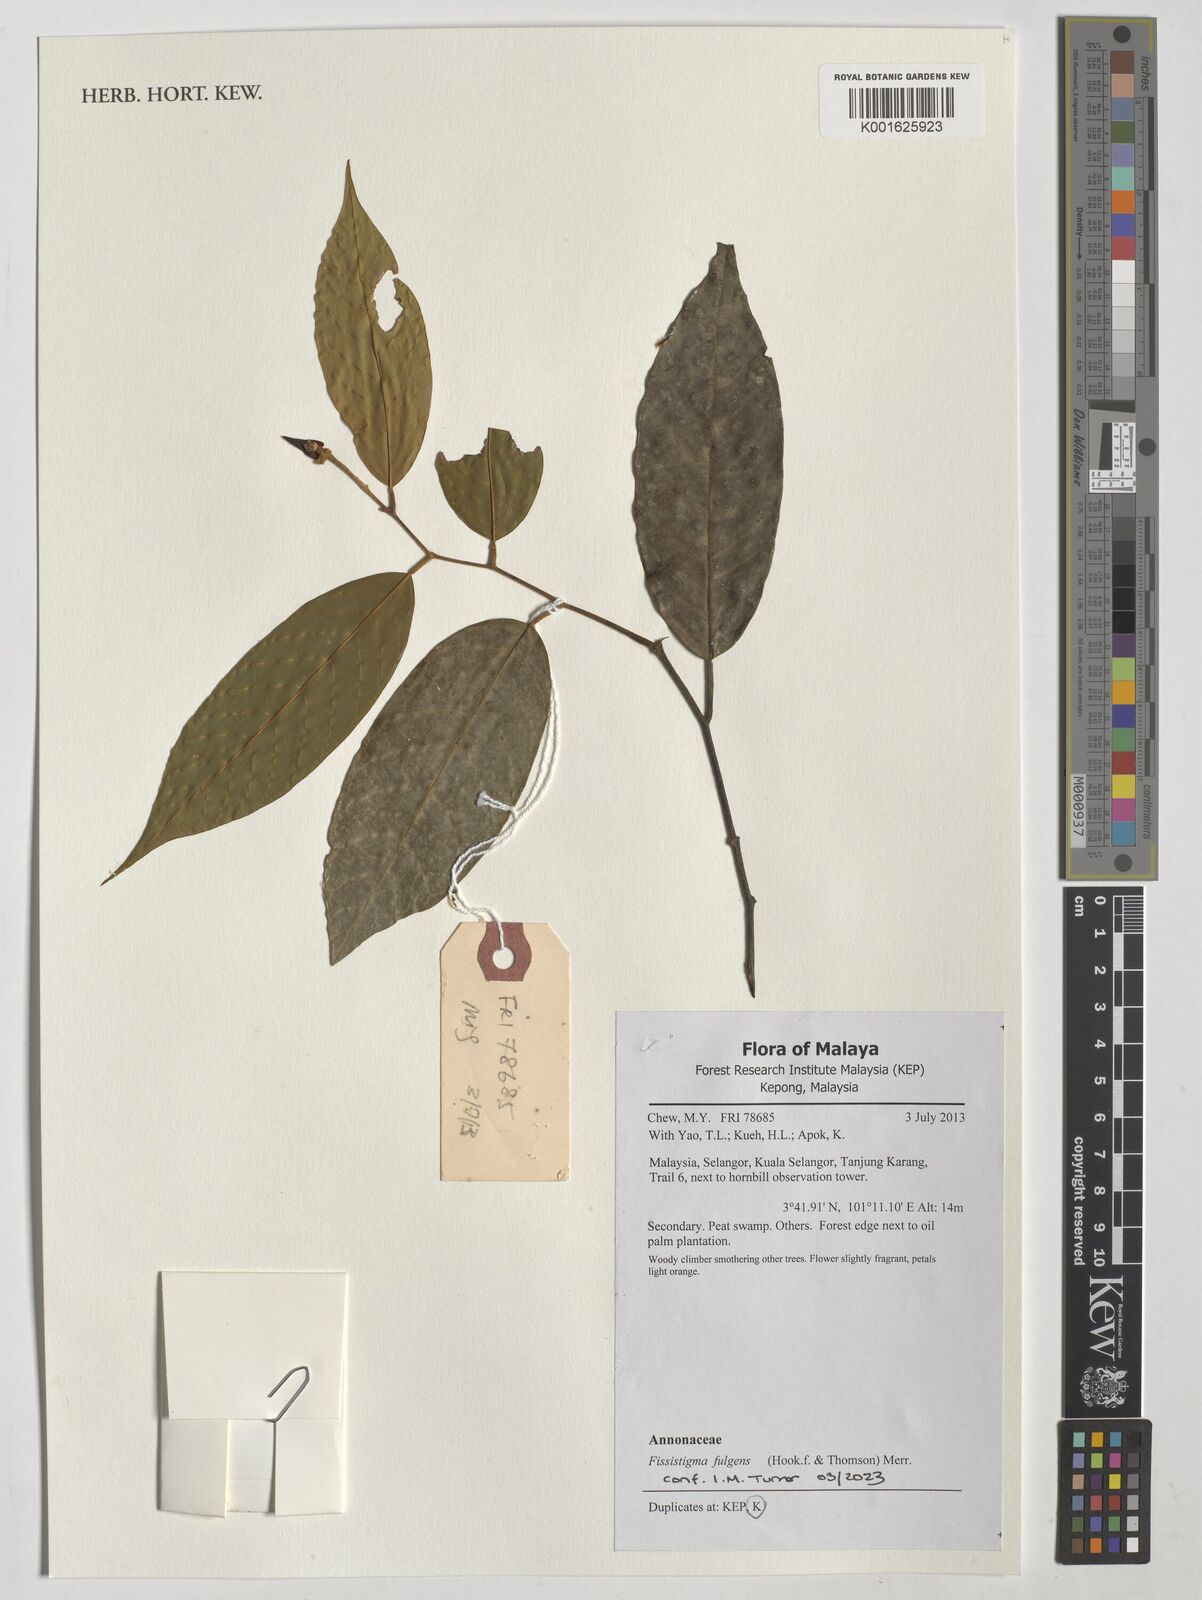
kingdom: Plantae
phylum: Tracheophyta
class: Magnoliopsida
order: Magnoliales
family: Annonaceae
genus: Fissistigma
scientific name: Fissistigma fulgens
